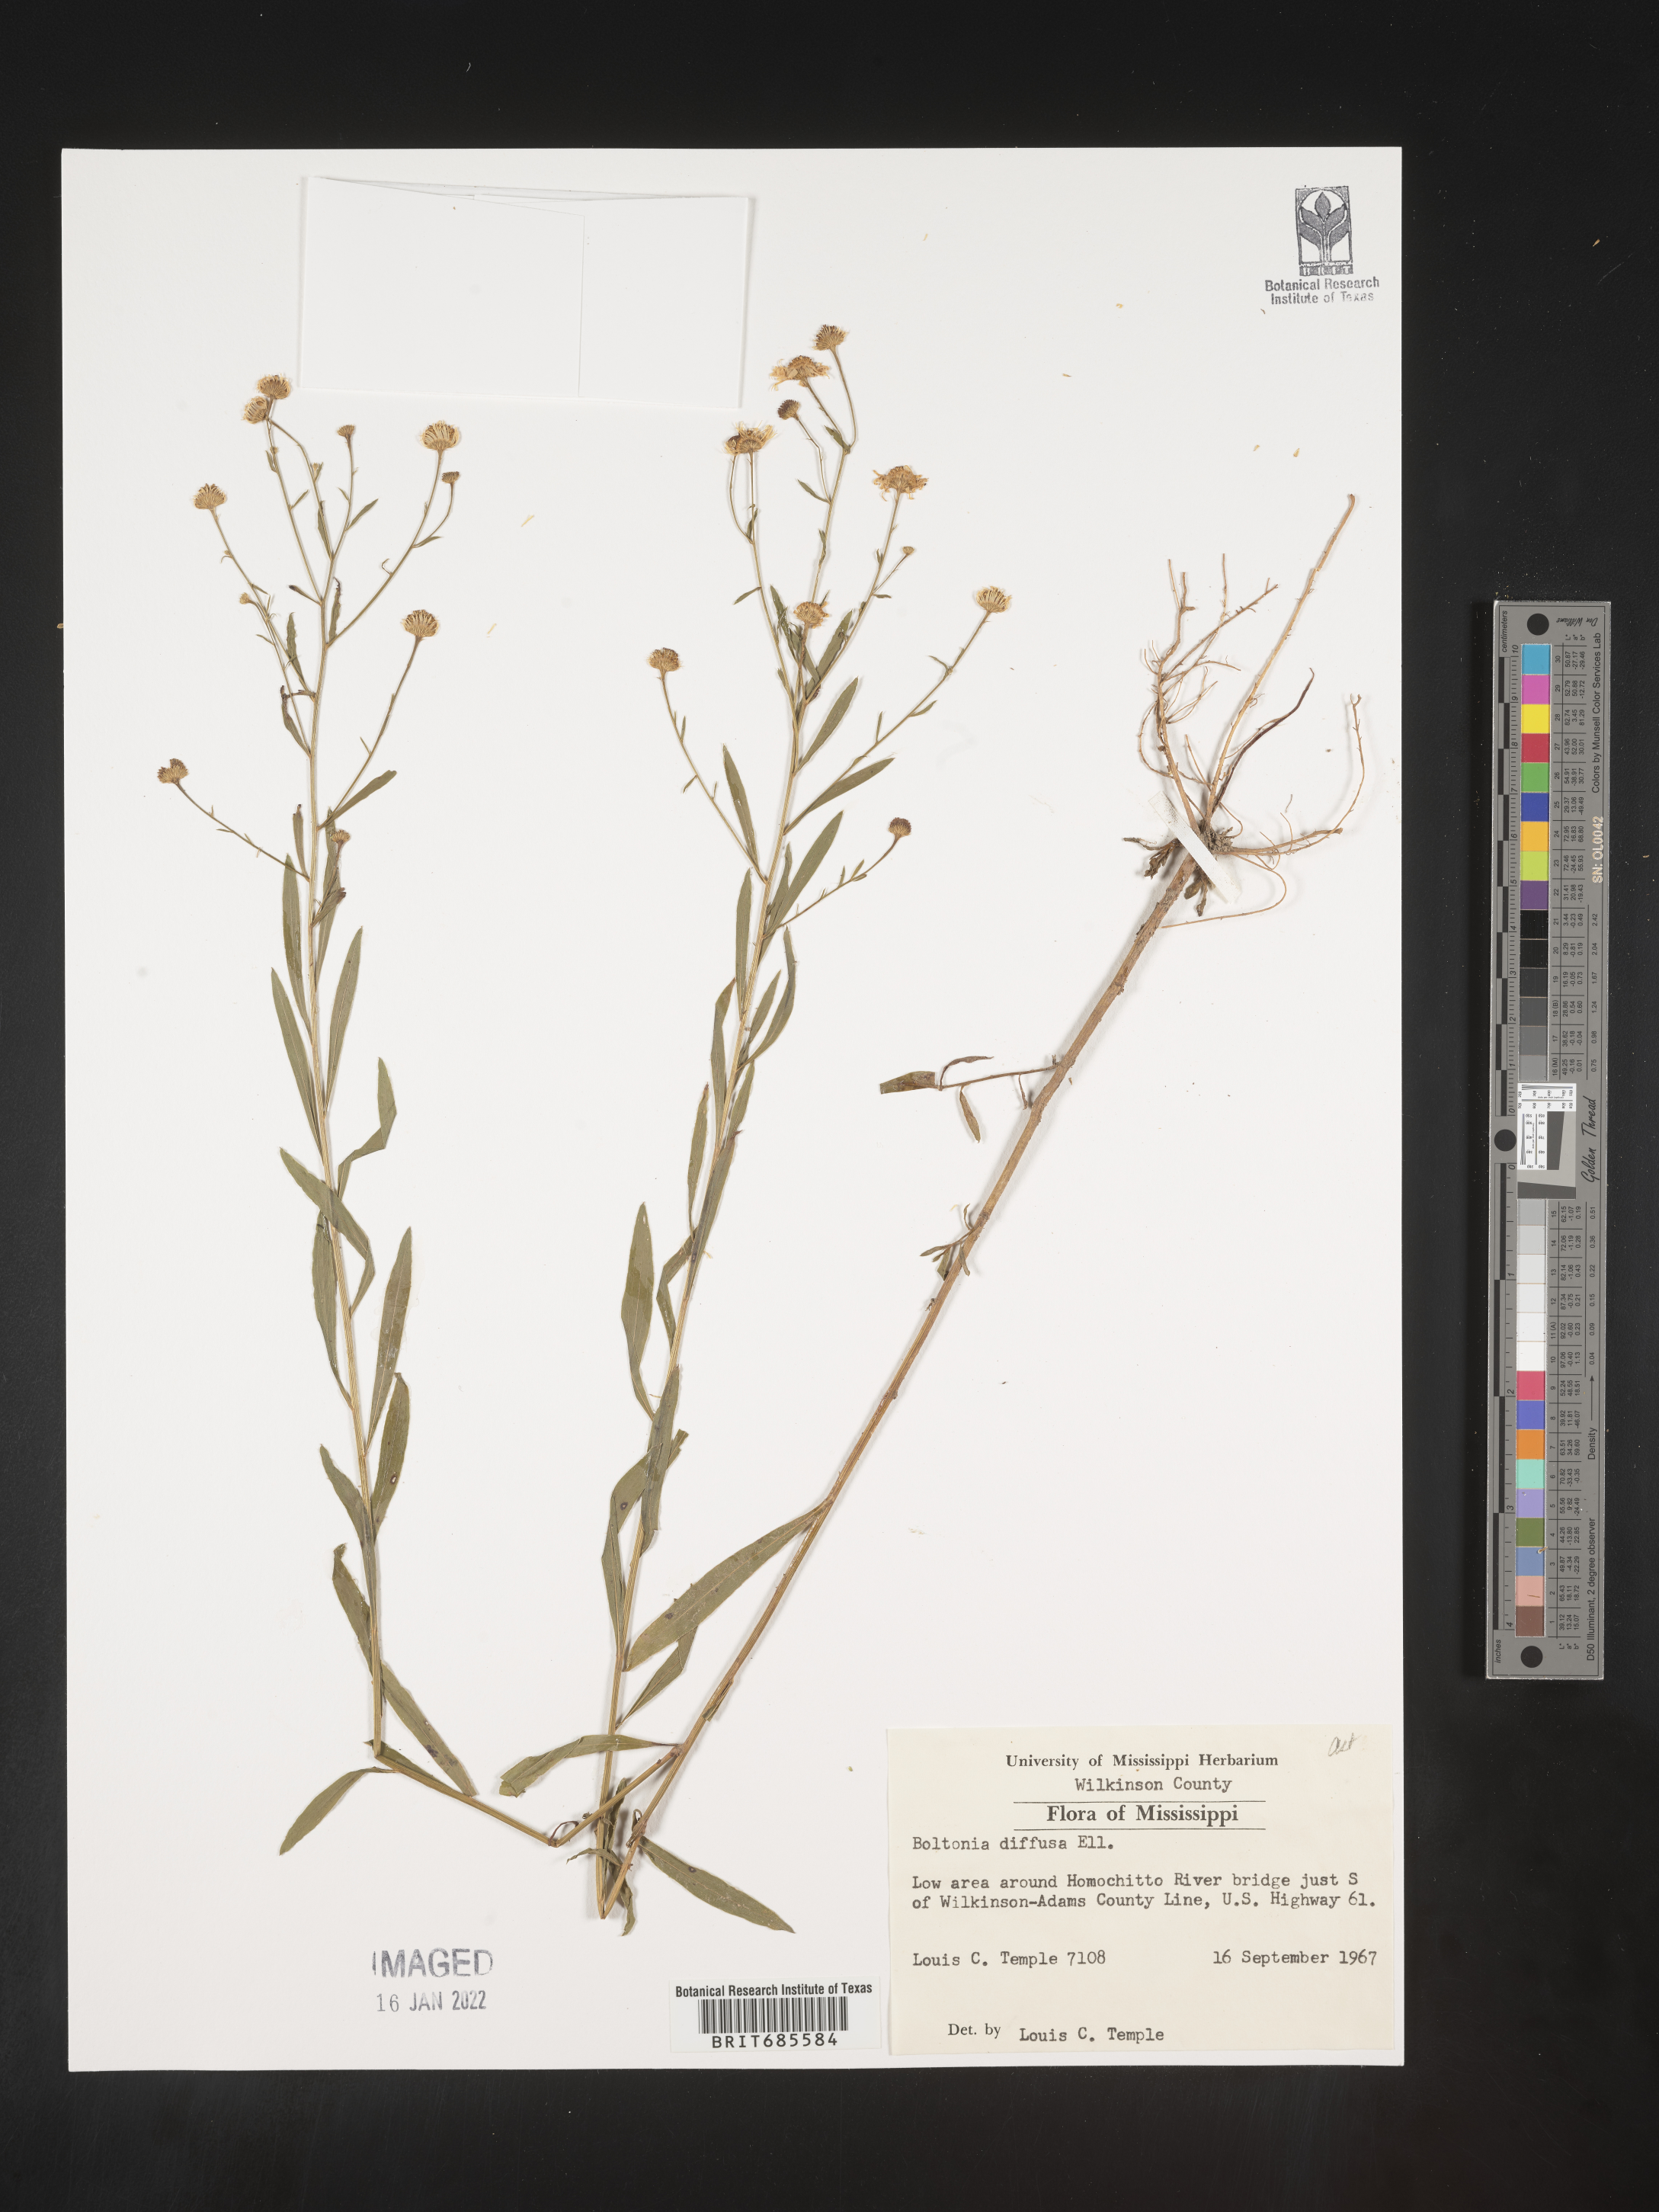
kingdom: Plantae
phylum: Tracheophyta
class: Magnoliopsida
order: Asterales
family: Asteraceae
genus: Boltonia
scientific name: Boltonia diffusa
